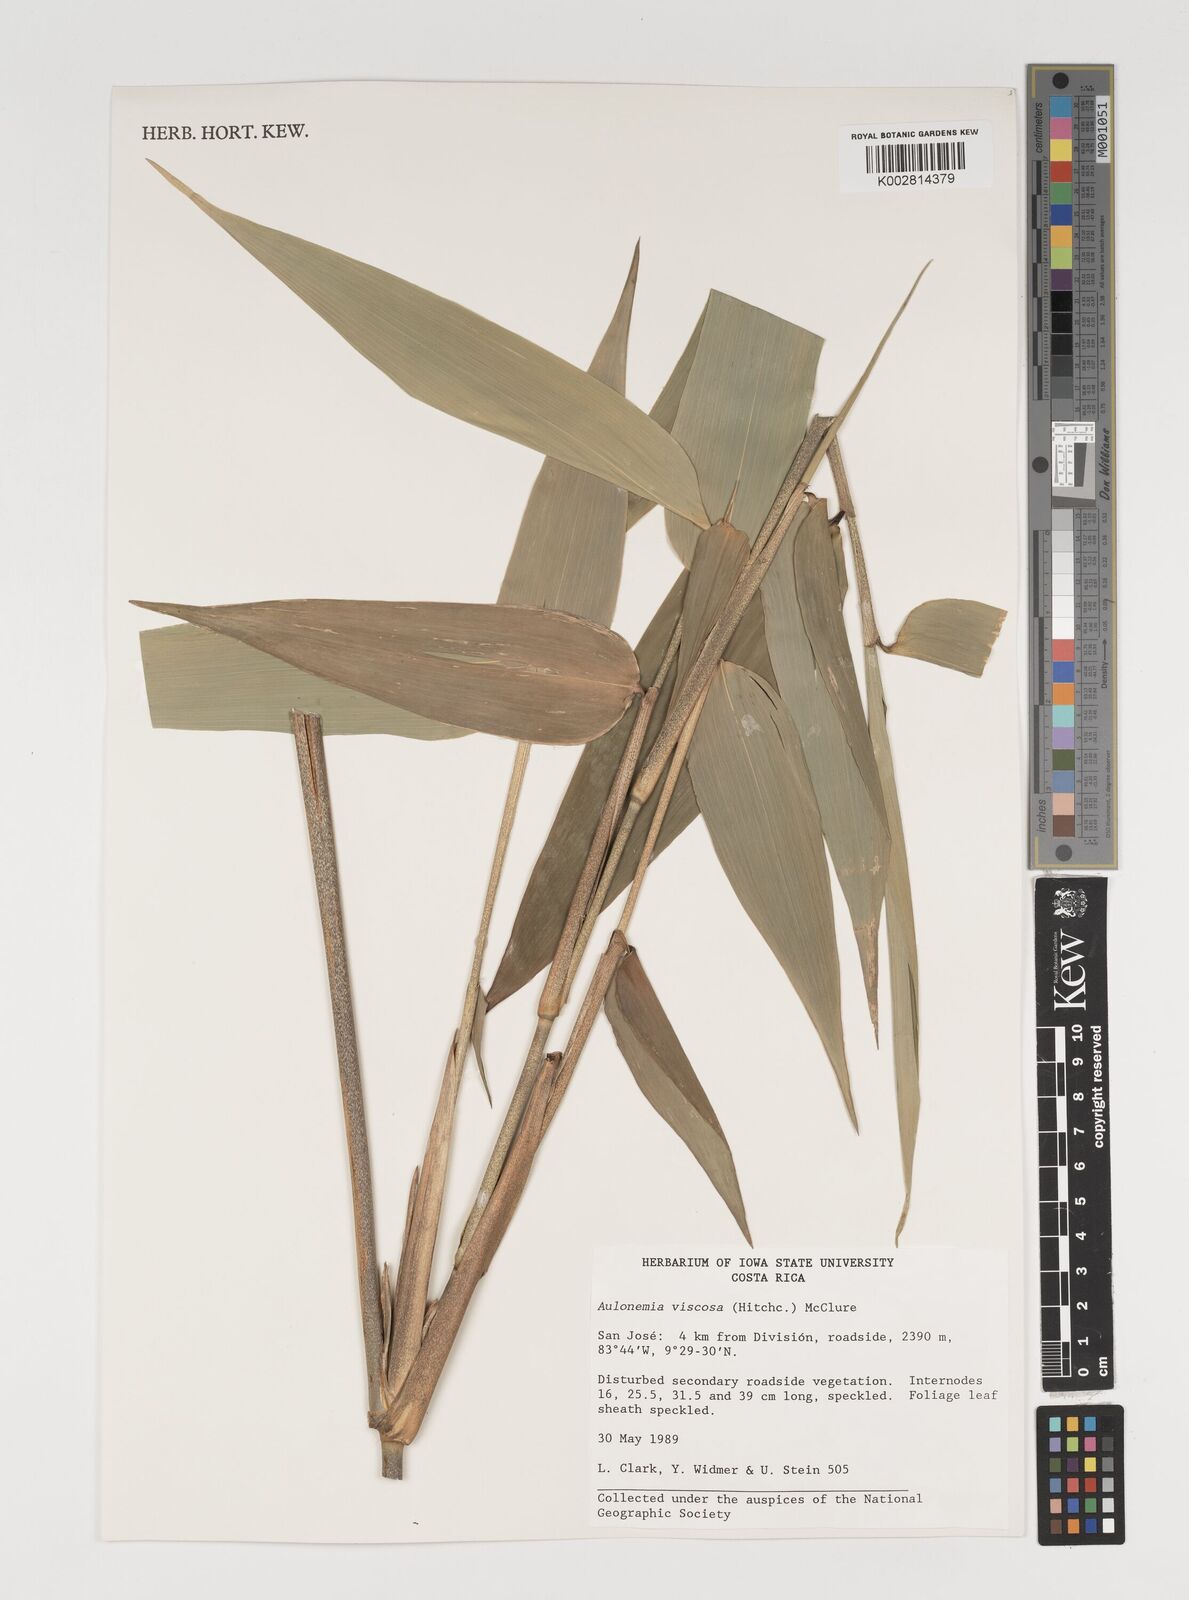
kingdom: Plantae
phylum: Tracheophyta
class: Liliopsida
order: Poales
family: Poaceae
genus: Aulonemia
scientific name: Aulonemia viscosa
